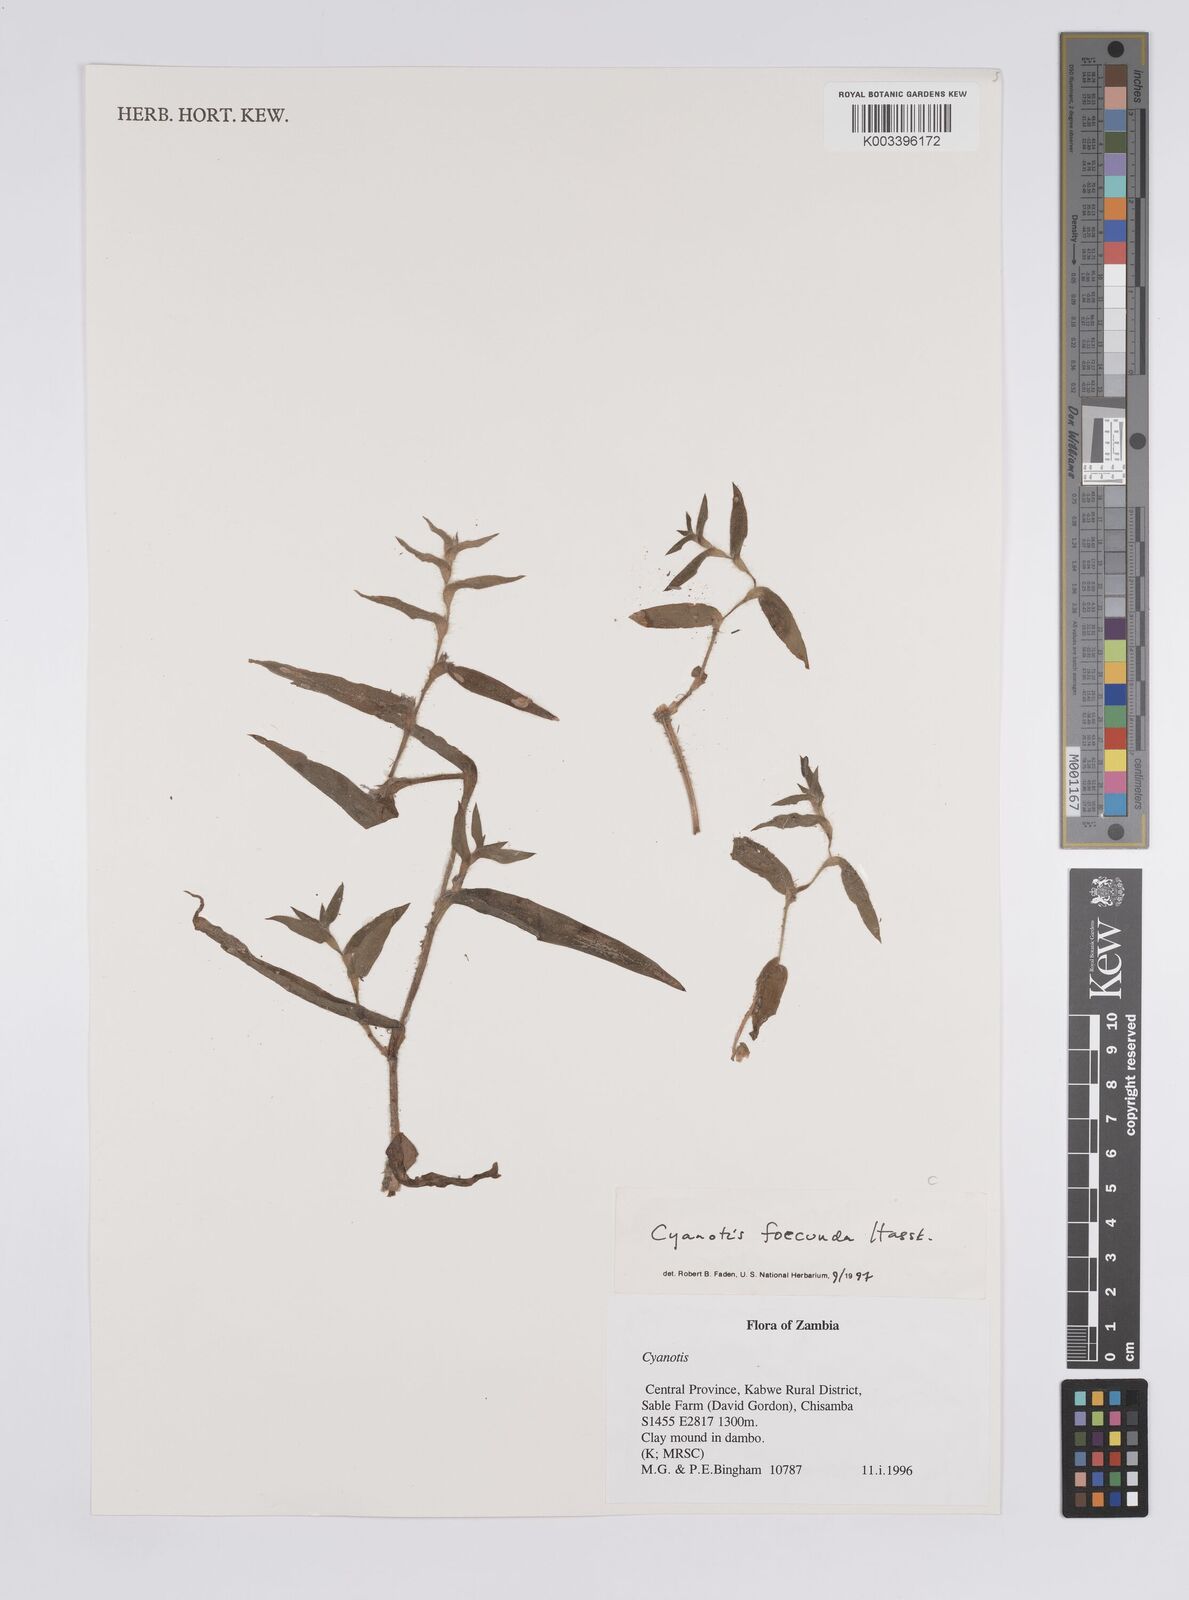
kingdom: Plantae
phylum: Tracheophyta
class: Liliopsida
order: Commelinales
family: Commelinaceae
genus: Cyanotis
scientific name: Cyanotis foecunda
